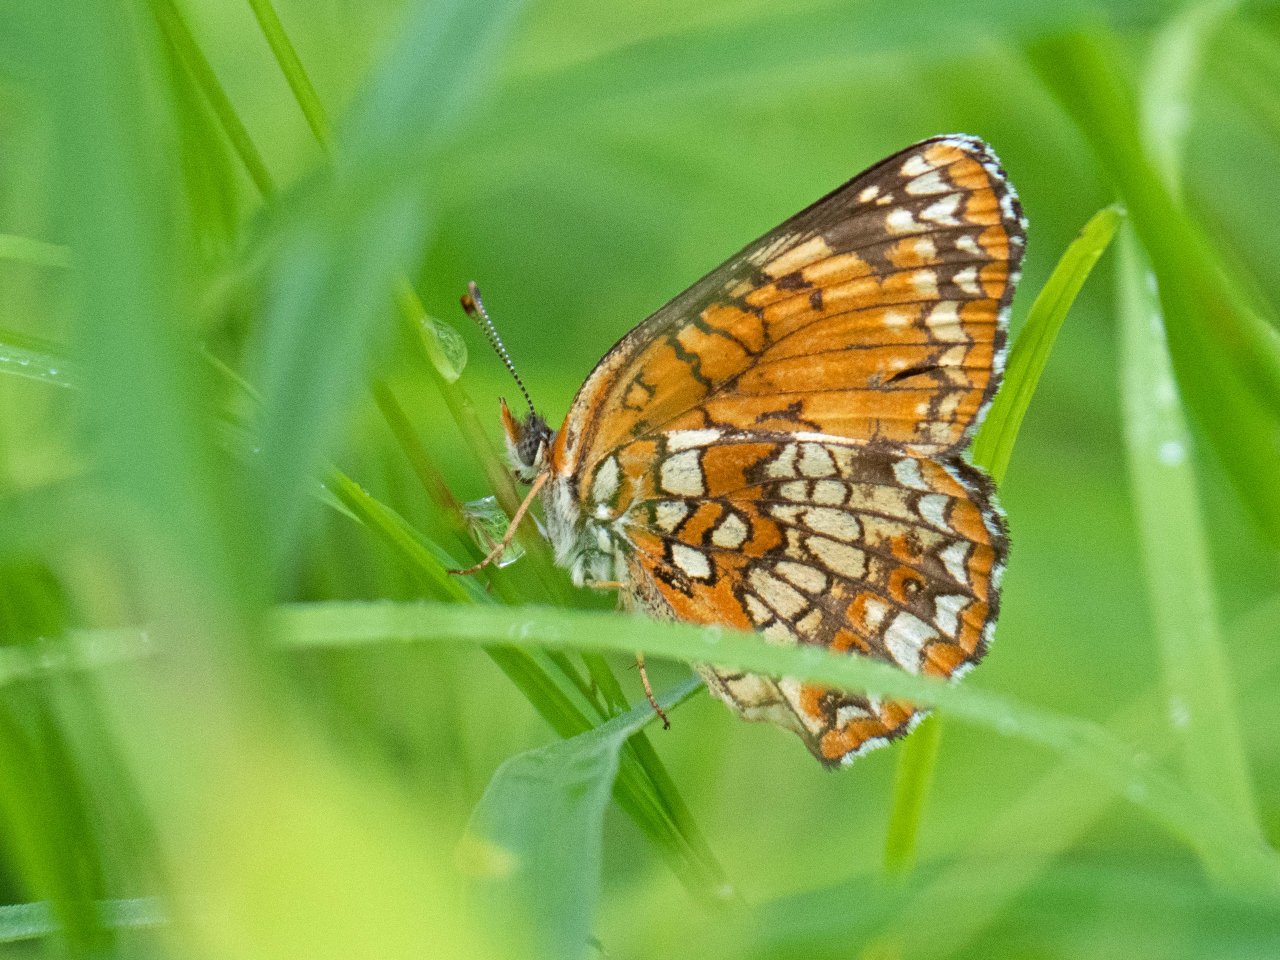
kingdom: Animalia
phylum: Arthropoda
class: Insecta
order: Lepidoptera
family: Nymphalidae
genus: Chlosyne
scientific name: Chlosyne harrisii
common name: Harris's Checkerspot
